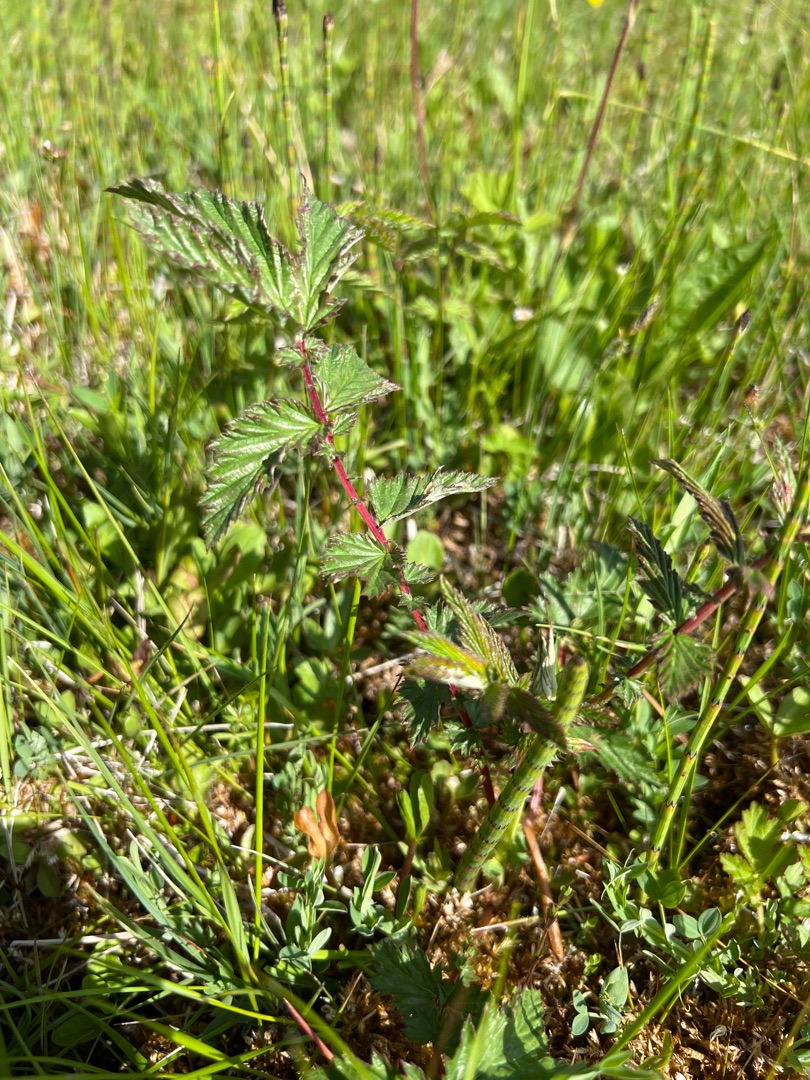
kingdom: Plantae
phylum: Tracheophyta
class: Magnoliopsida
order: Rosales
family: Rosaceae
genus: Filipendula
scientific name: Filipendula ulmaria
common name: Almindelig mjødurt
